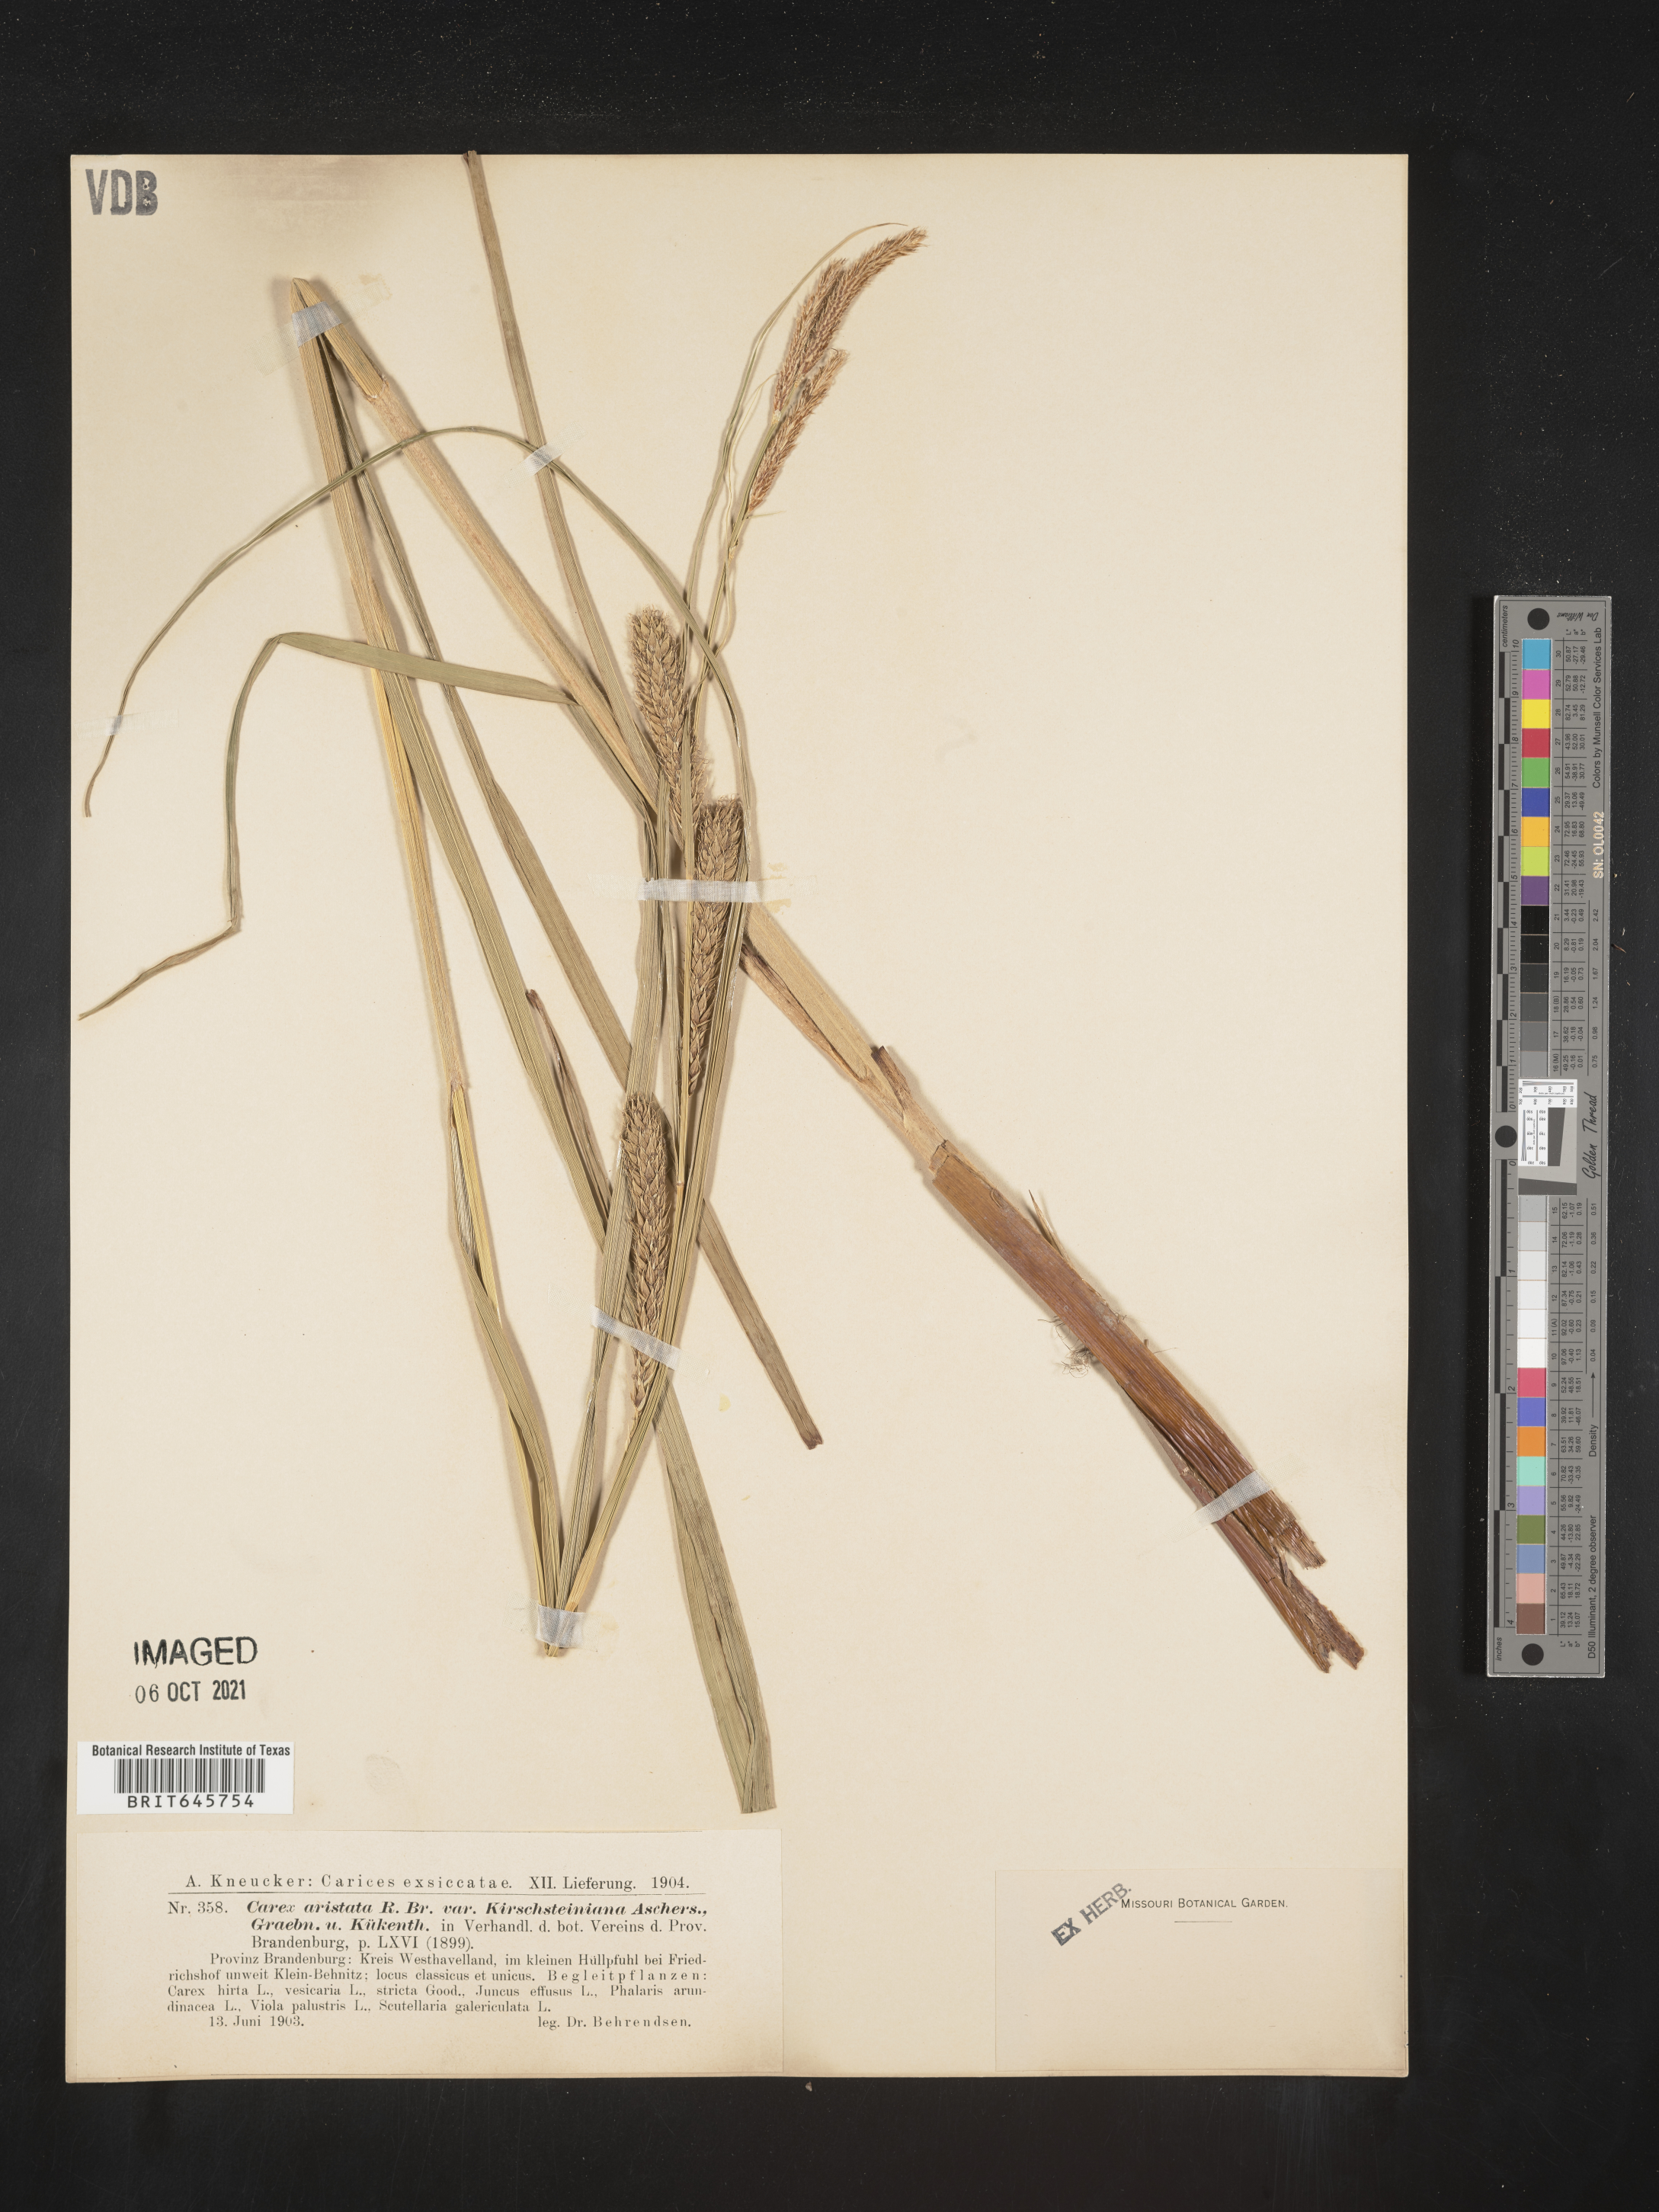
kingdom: Plantae
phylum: Tracheophyta
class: Liliopsida
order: Poales
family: Cyperaceae
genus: Carex
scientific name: Carex
